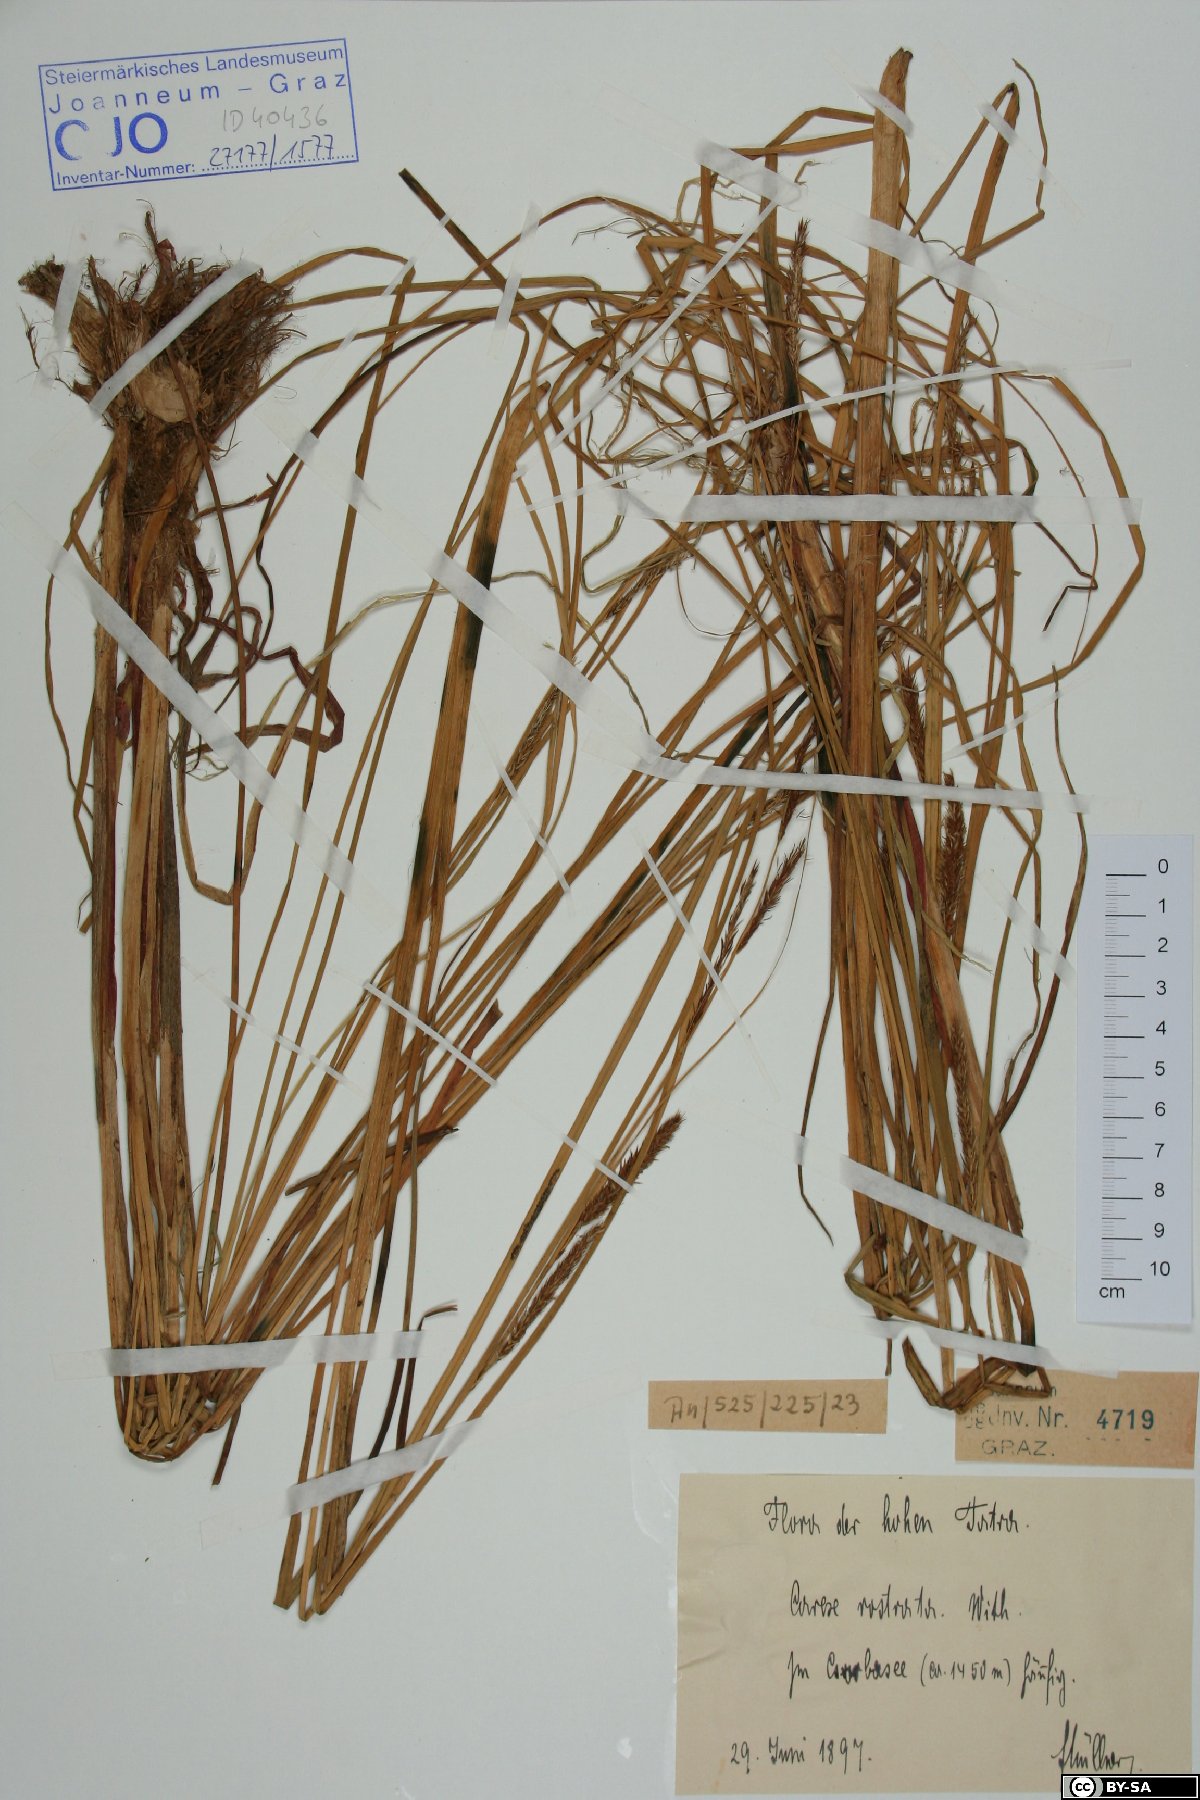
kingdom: Plantae
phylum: Tracheophyta
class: Liliopsida
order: Poales
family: Cyperaceae
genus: Carex
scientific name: Carex rostrata
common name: Bottle sedge
